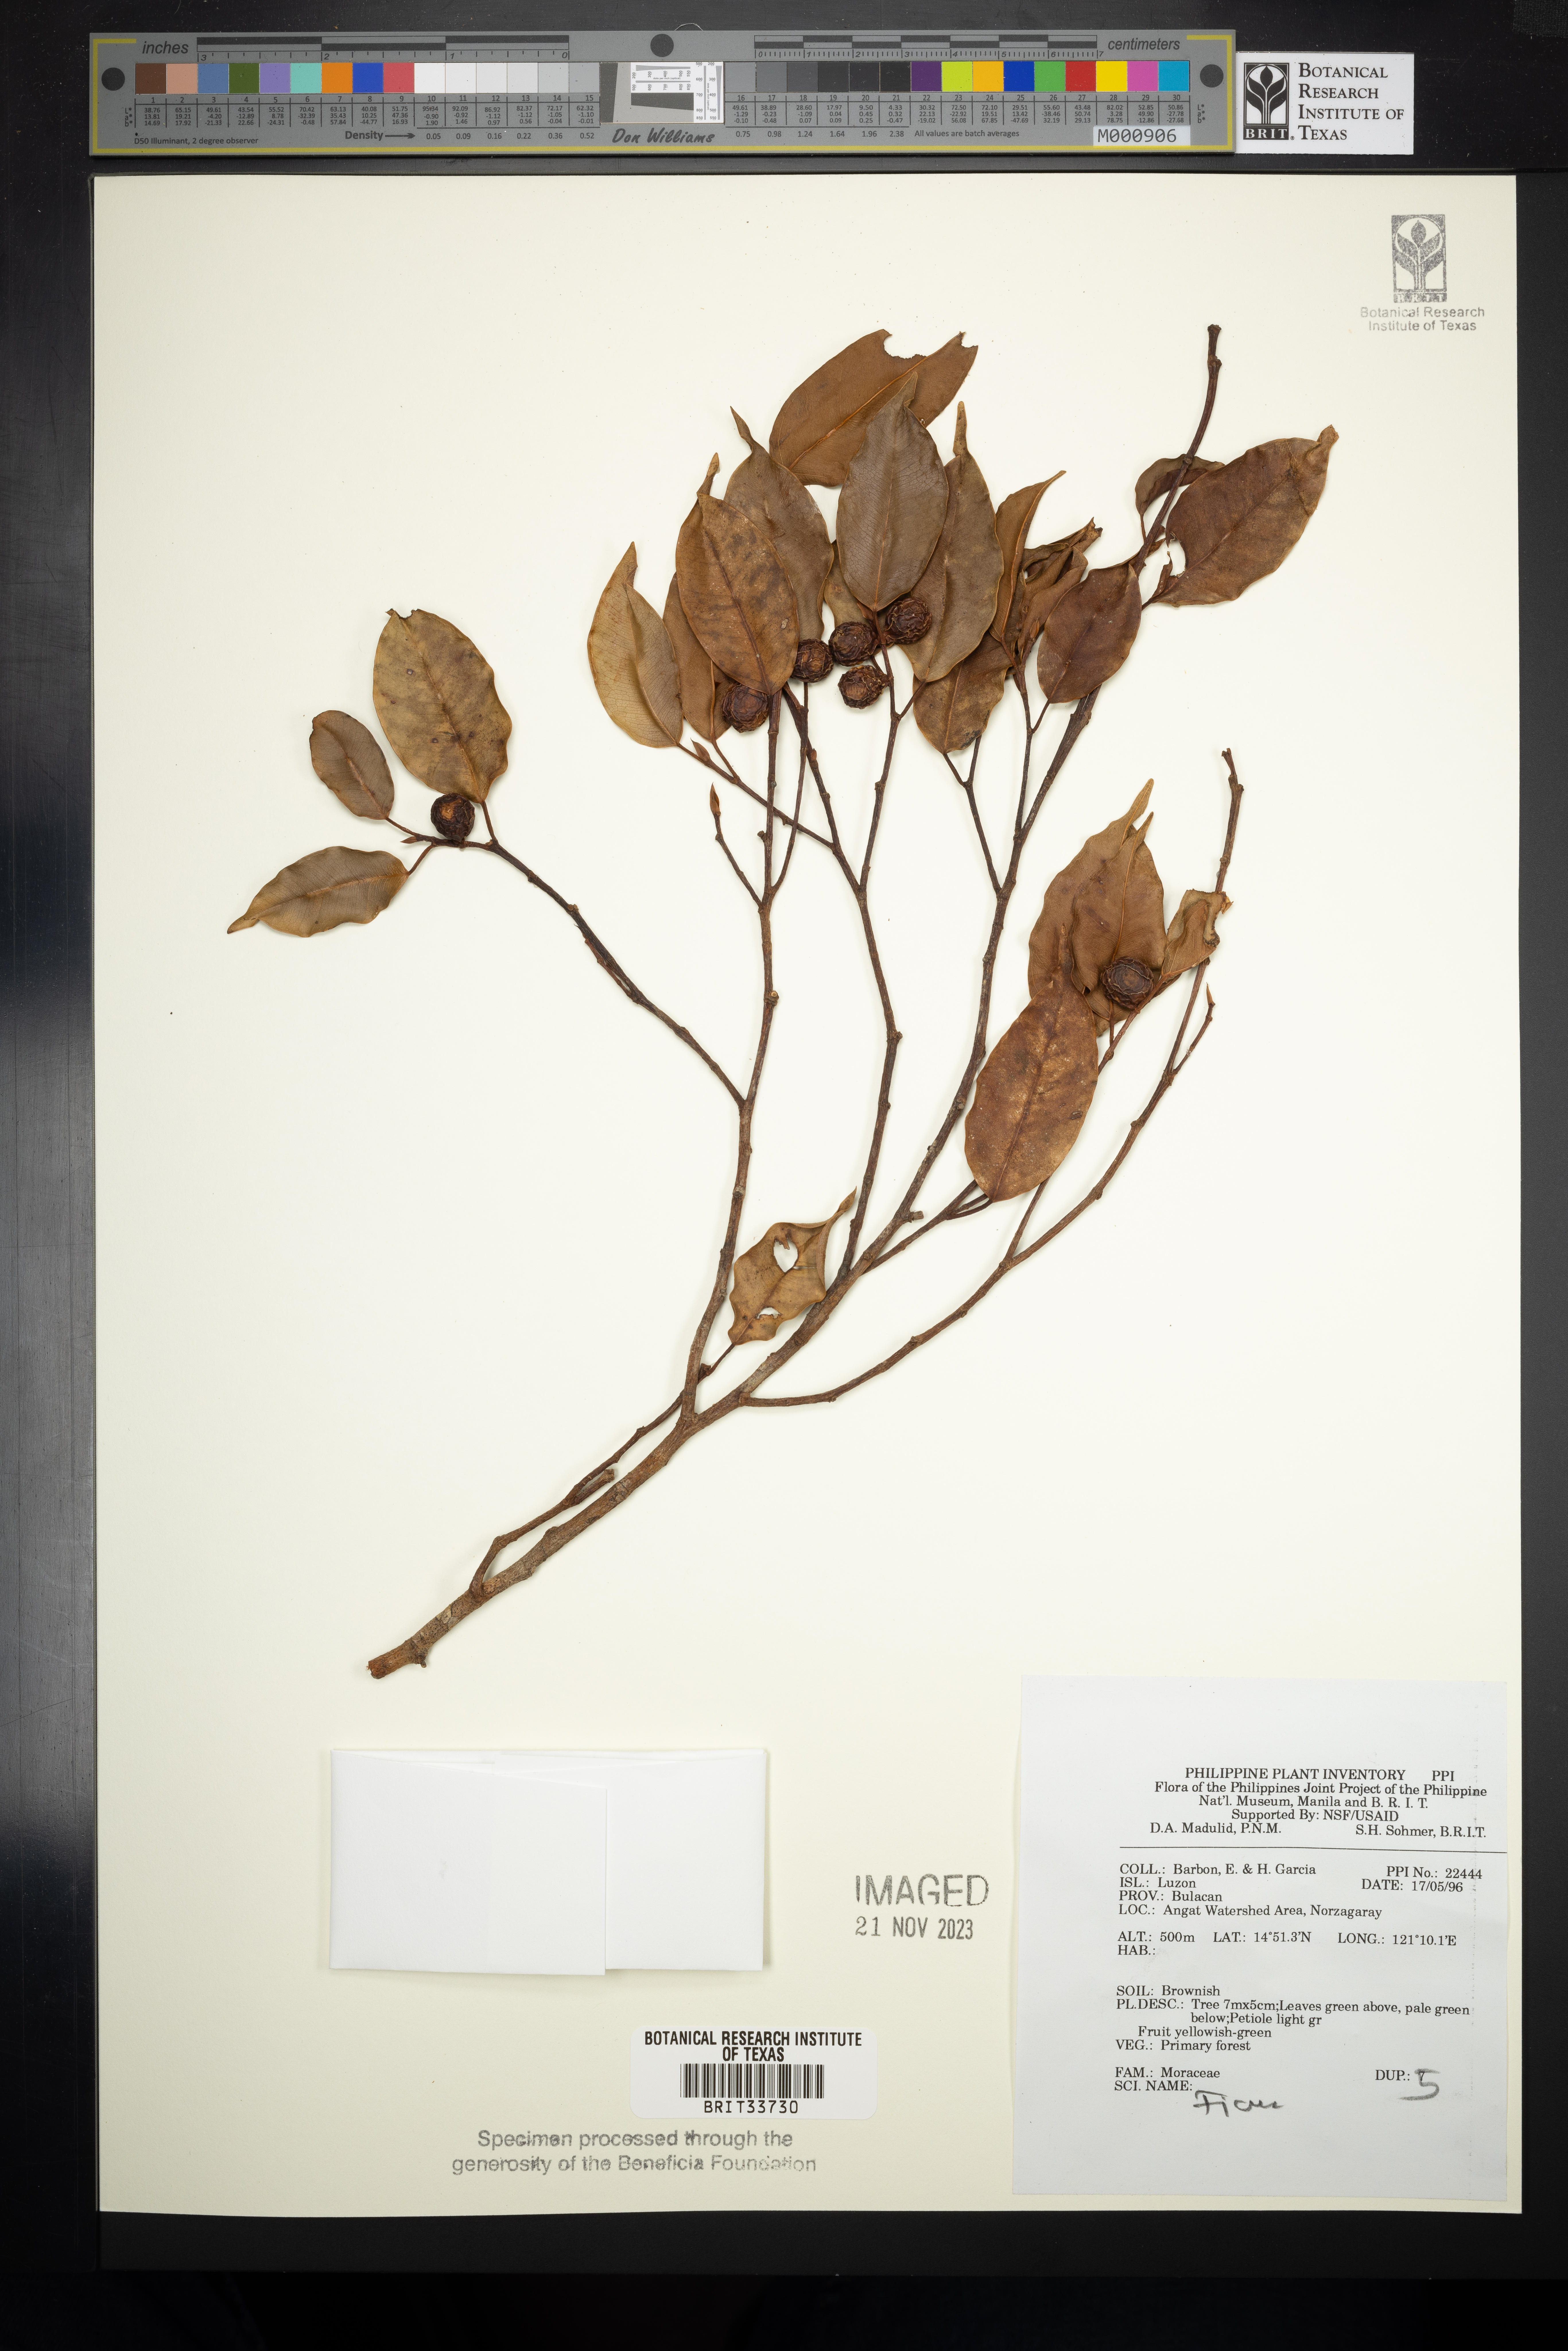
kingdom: Plantae
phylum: Tracheophyta
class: Magnoliopsida
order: Rosales
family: Moraceae
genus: Ficus
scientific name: Ficus
